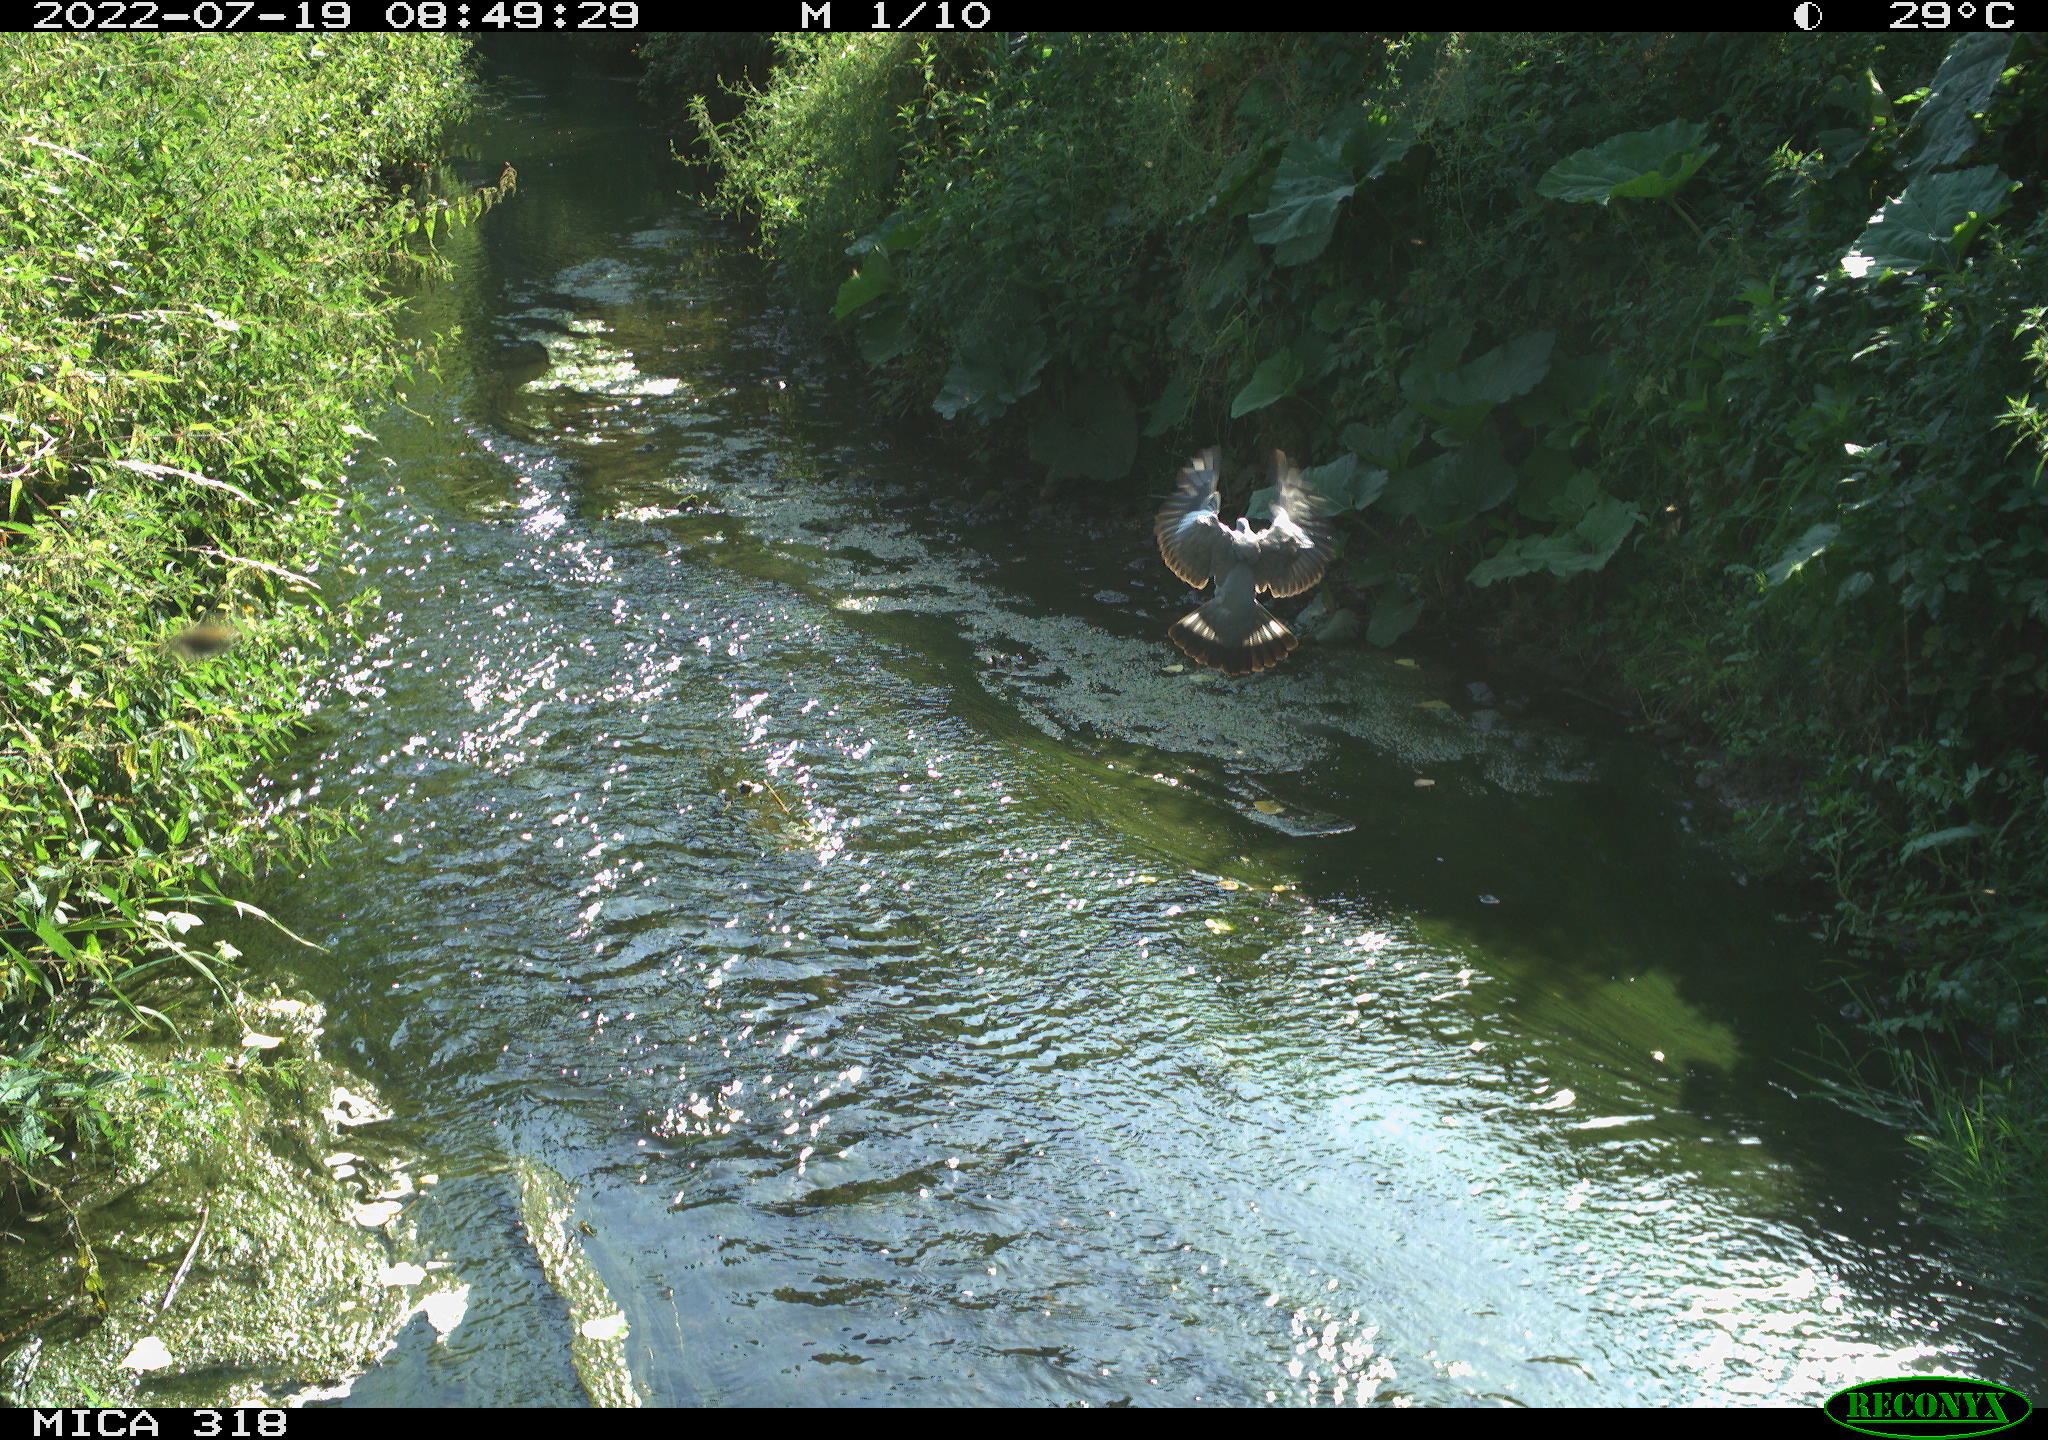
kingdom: Animalia
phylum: Chordata
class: Aves
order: Columbiformes
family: Columbidae
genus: Columba
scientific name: Columba palumbus
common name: Common wood pigeon
